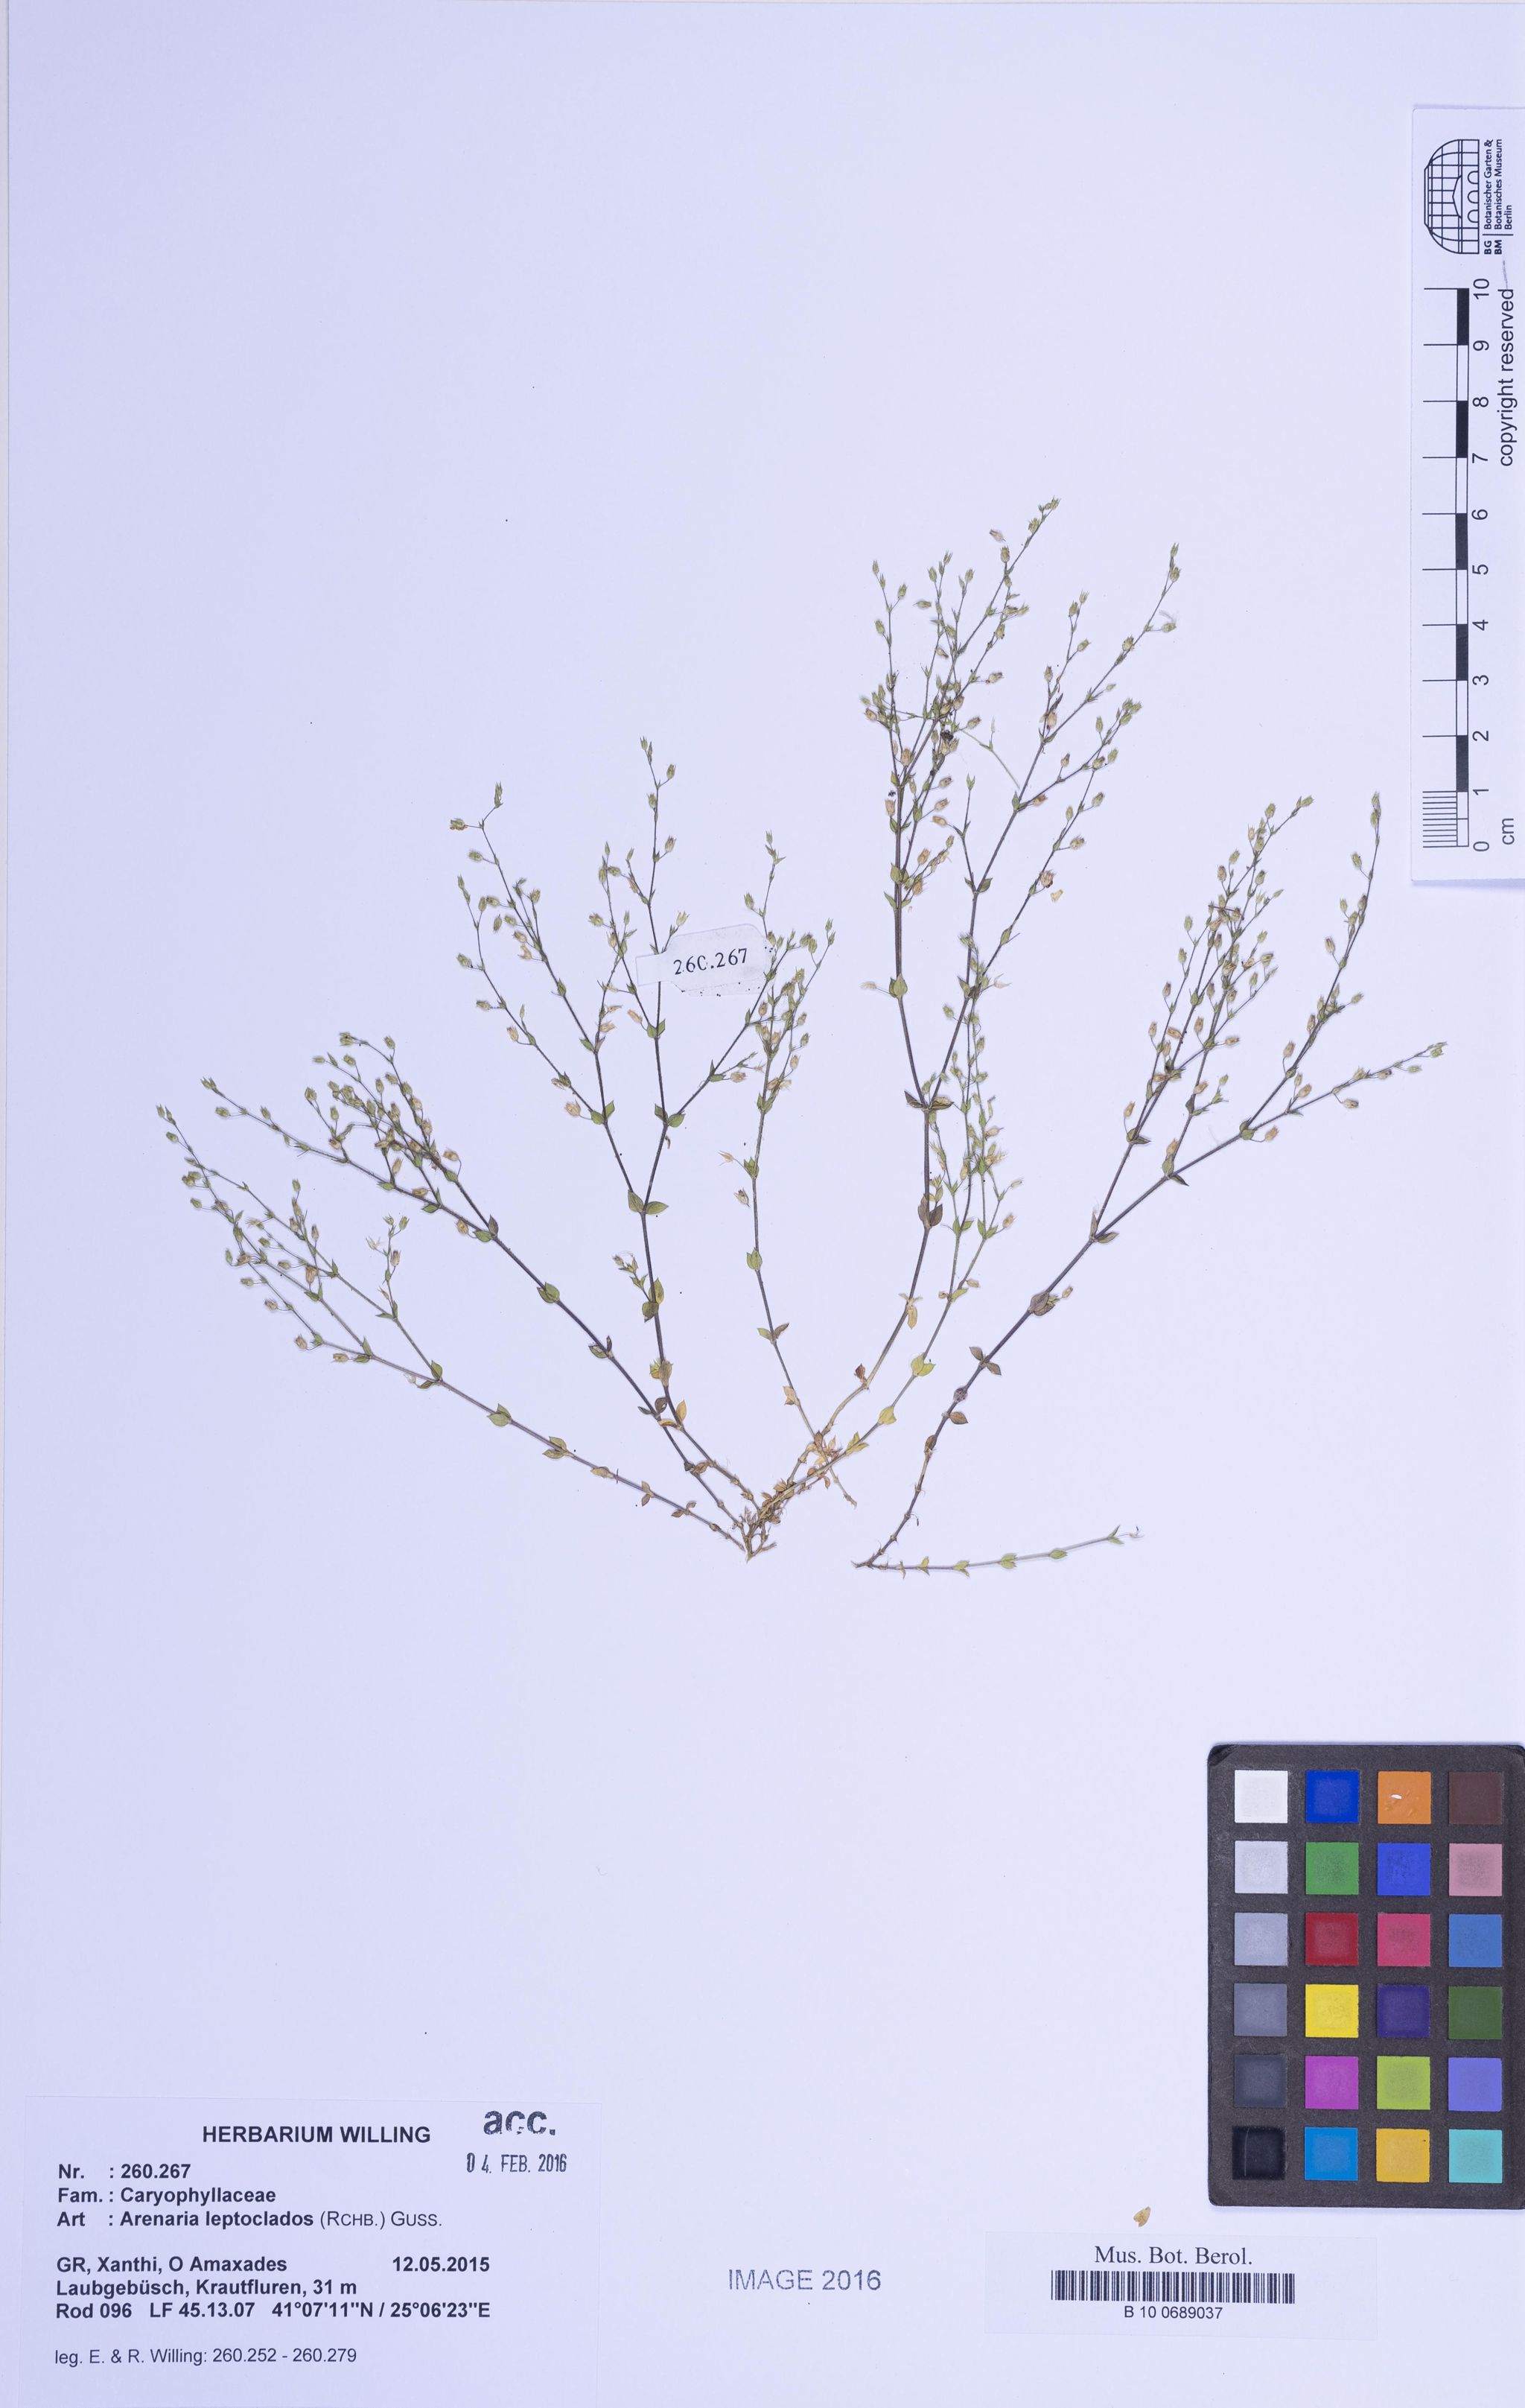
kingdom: Plantae
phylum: Tracheophyta
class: Magnoliopsida
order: Caryophyllales
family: Caryophyllaceae
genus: Arenaria
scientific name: Arenaria leptoclados
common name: Thyme-leaved sandwort
